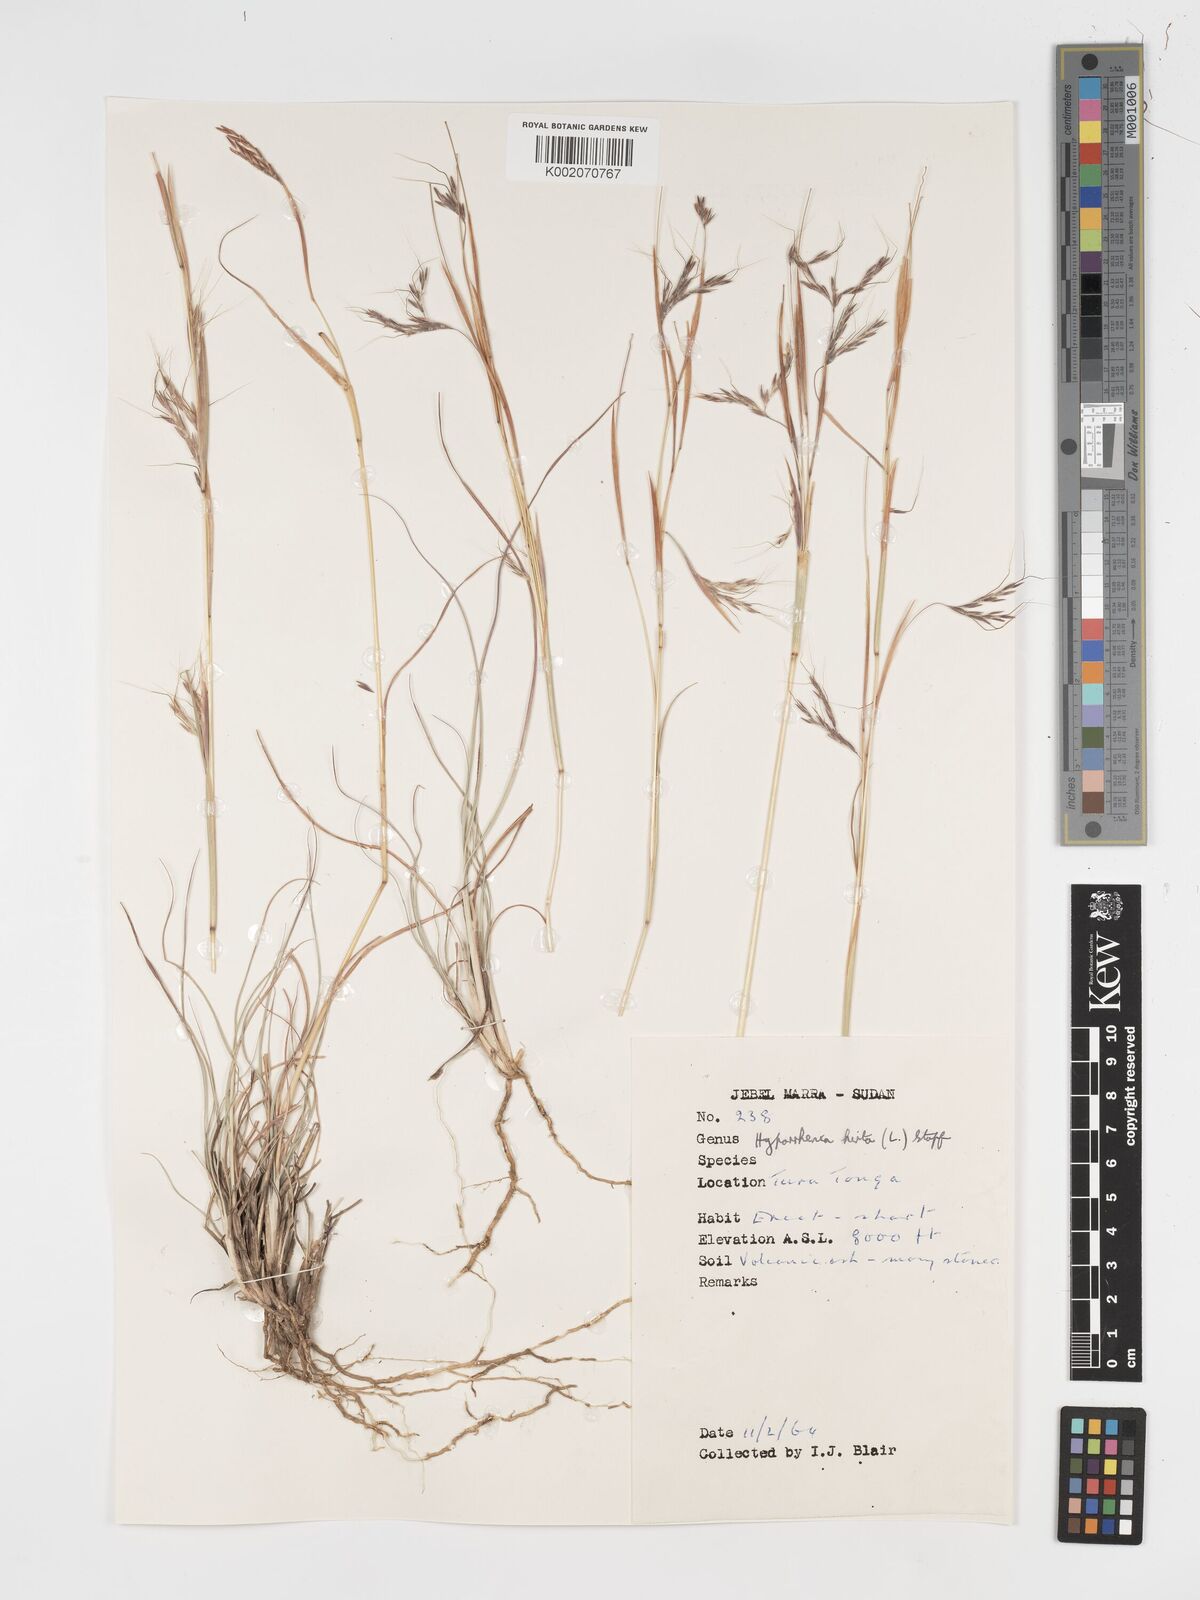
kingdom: Plantae
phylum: Tracheophyta
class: Liliopsida
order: Poales
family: Poaceae
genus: Hyparrhenia
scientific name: Hyparrhenia hirta
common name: Thatching grass
